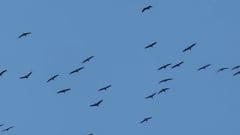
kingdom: Animalia
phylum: Chordata
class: Aves
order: Gruiformes
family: Gruidae
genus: Grus
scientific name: Grus grus
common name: Common crane
